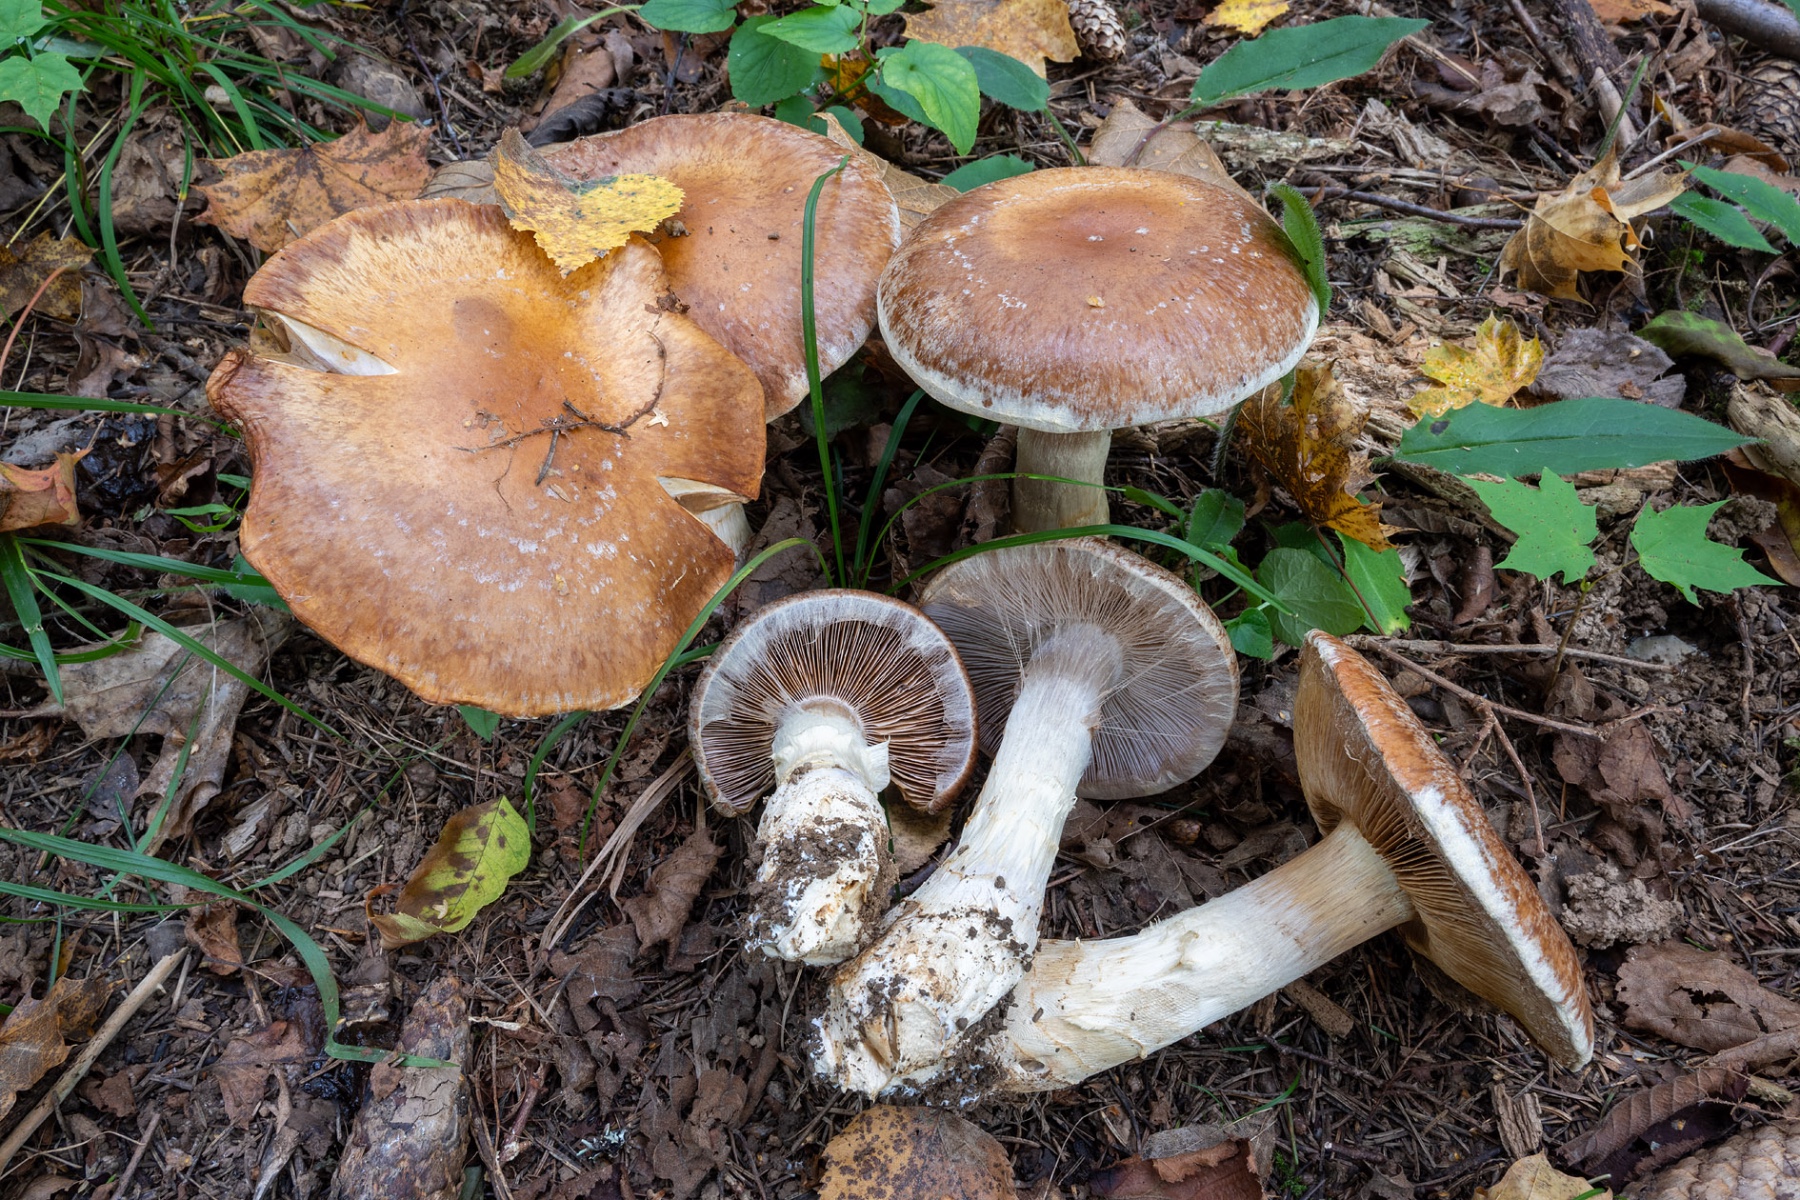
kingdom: Fungi
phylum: Basidiomycota
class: Agaricomycetes
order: Agaricales
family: Cortinariaceae
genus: Cortinarius
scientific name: Cortinarius praestans
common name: Goliath webcap
